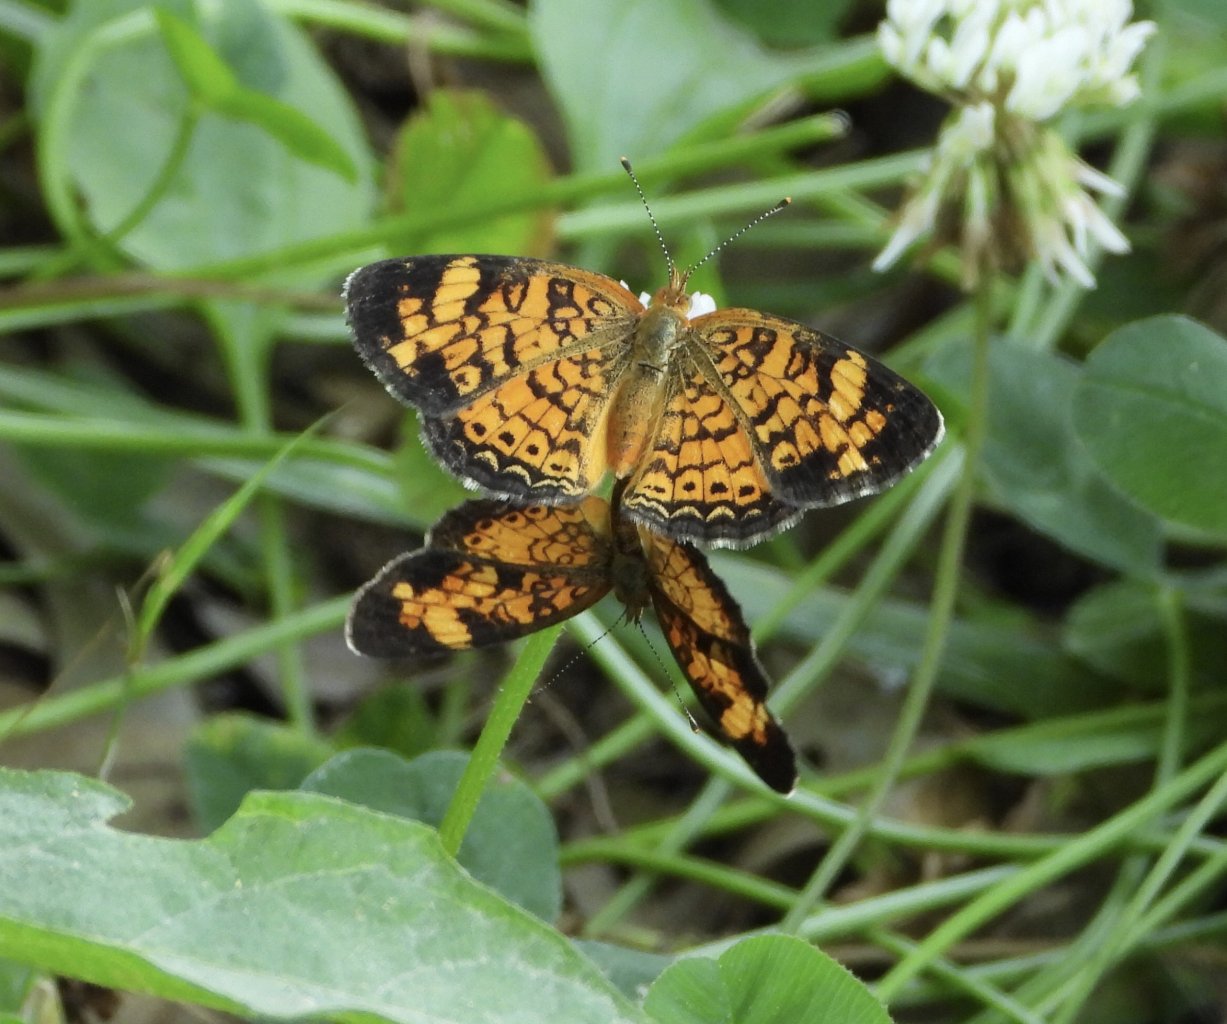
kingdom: Animalia
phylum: Arthropoda
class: Insecta
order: Lepidoptera
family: Nymphalidae
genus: Phyciodes
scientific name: Phyciodes tharos
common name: Pearl Crescent
